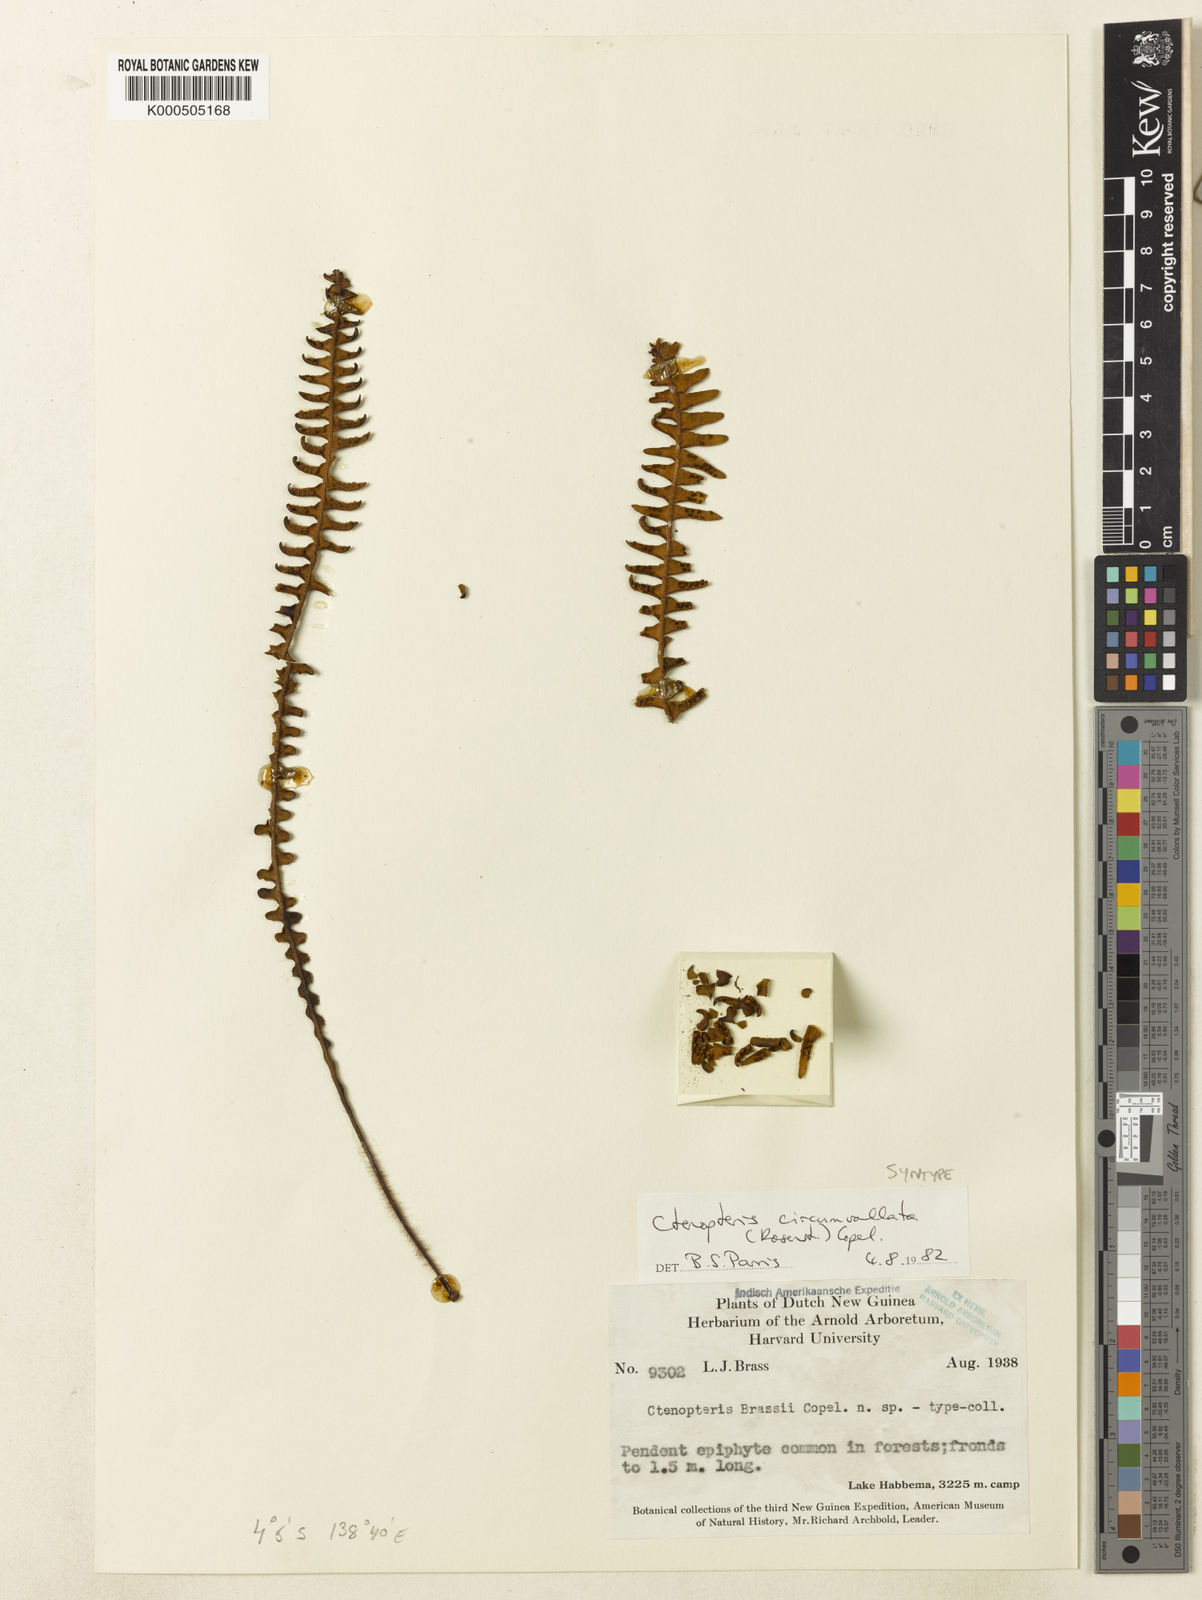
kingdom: Plantae
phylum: Tracheophyta
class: Polypodiopsida
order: Polypodiales
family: Polypodiaceae
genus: Prosaptia
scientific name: Prosaptia circumvallata
